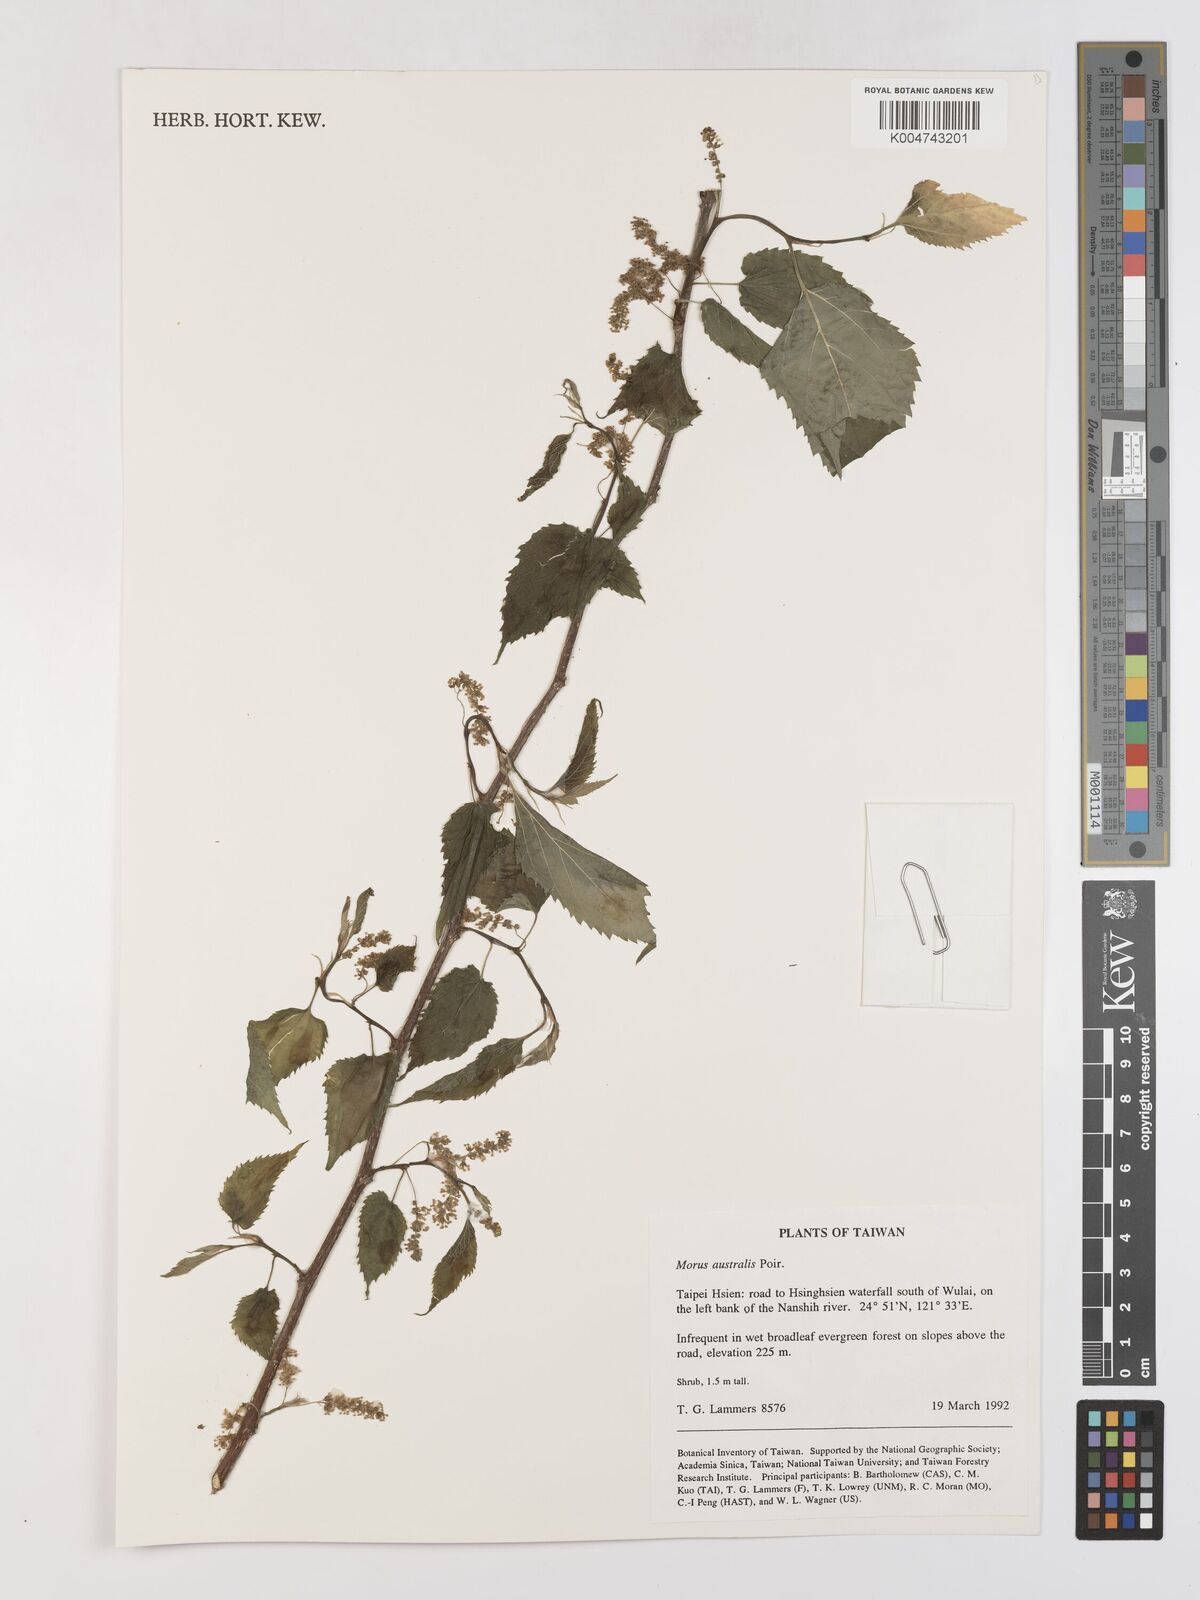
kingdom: Plantae
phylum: Tracheophyta
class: Magnoliopsida
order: Rosales
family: Moraceae
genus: Broussonetia
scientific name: Broussonetia papyrifera
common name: Paper mulberry
